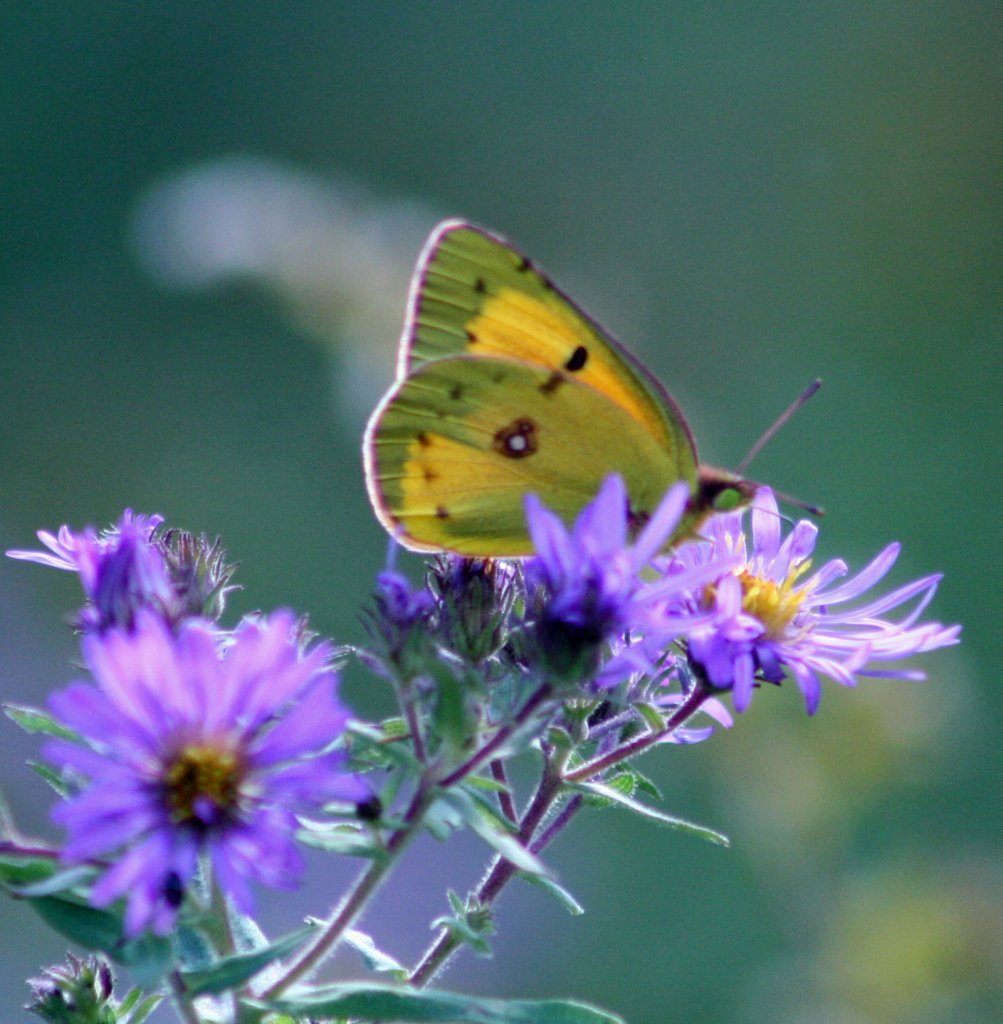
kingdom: Animalia
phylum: Arthropoda
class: Insecta
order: Lepidoptera
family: Pieridae
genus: Colias
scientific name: Colias eurytheme
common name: Orange Sulphur
